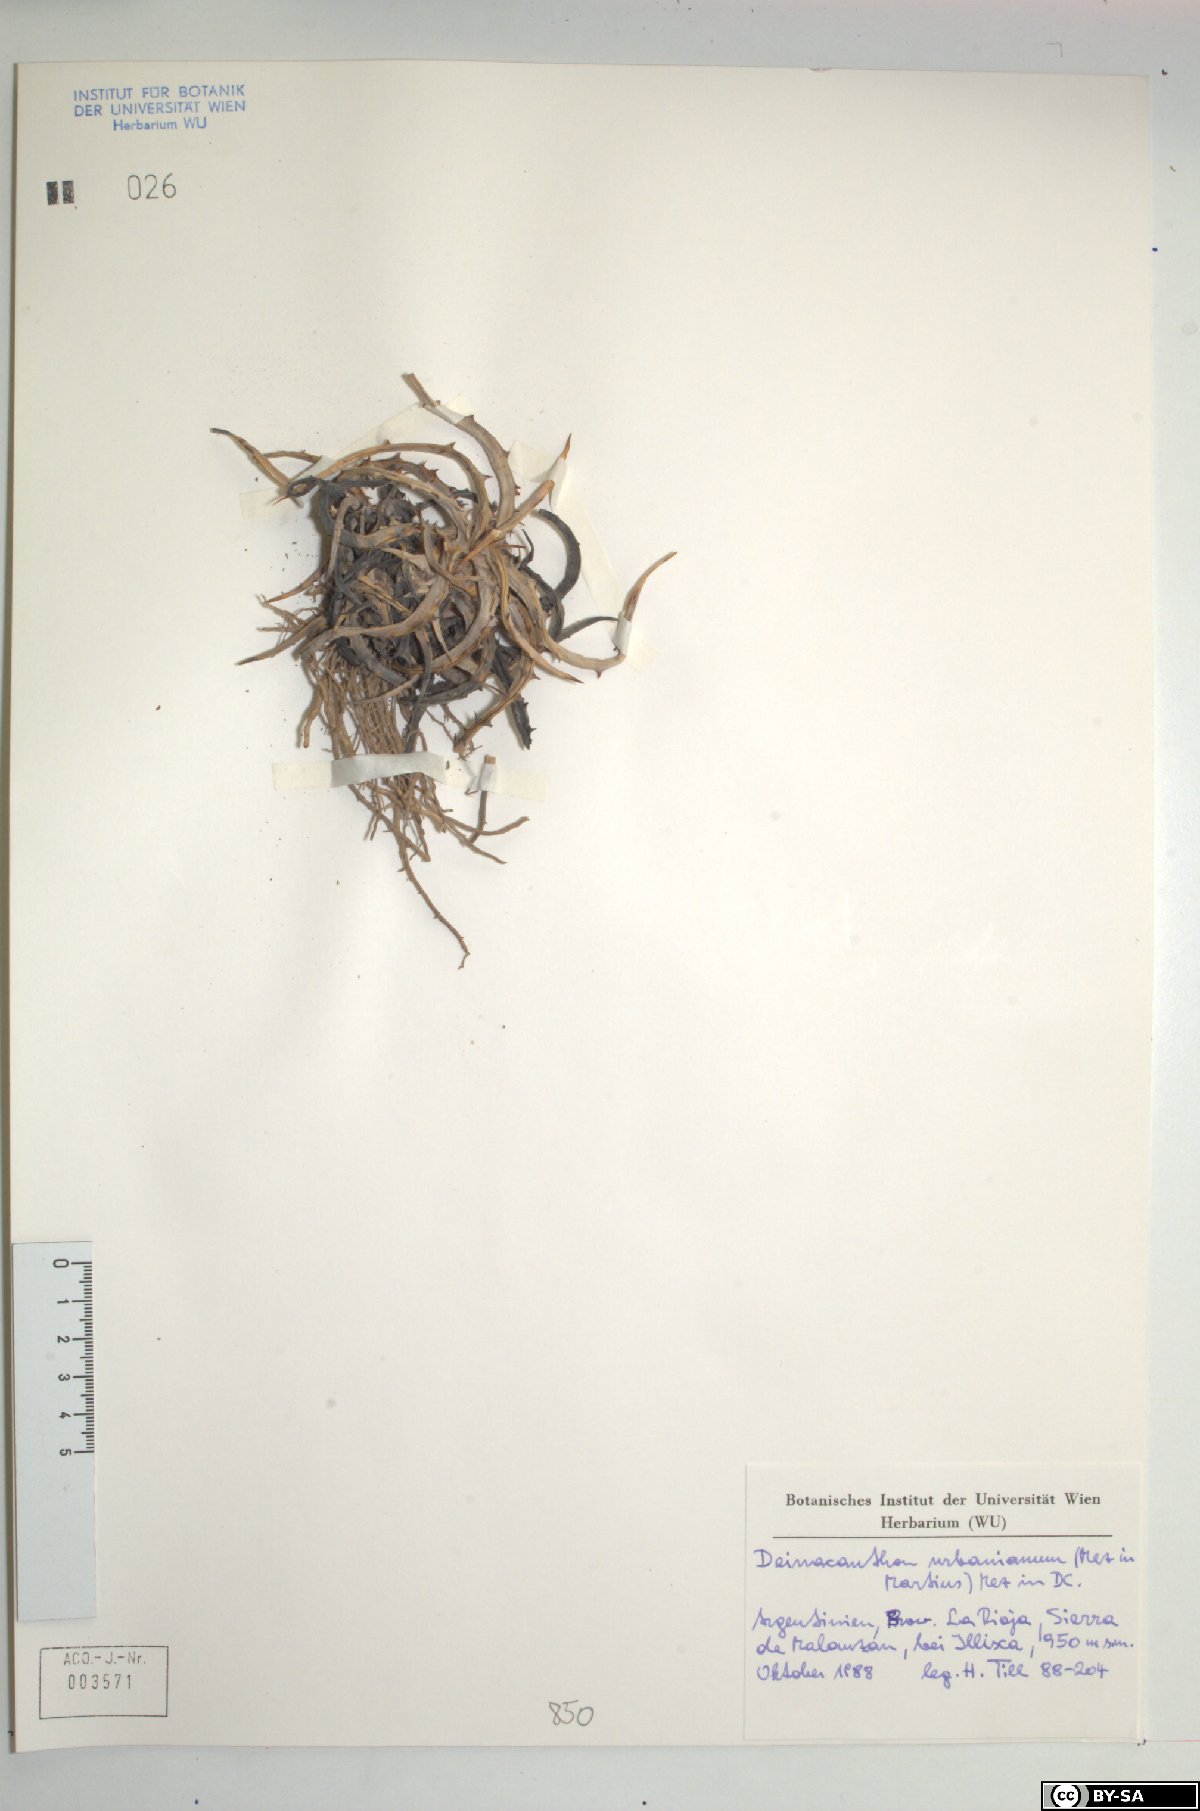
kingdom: Plantae
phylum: Tracheophyta
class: Liliopsida
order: Poales
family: Bromeliaceae
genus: Deinacanthon
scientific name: Deinacanthon urbanianum
